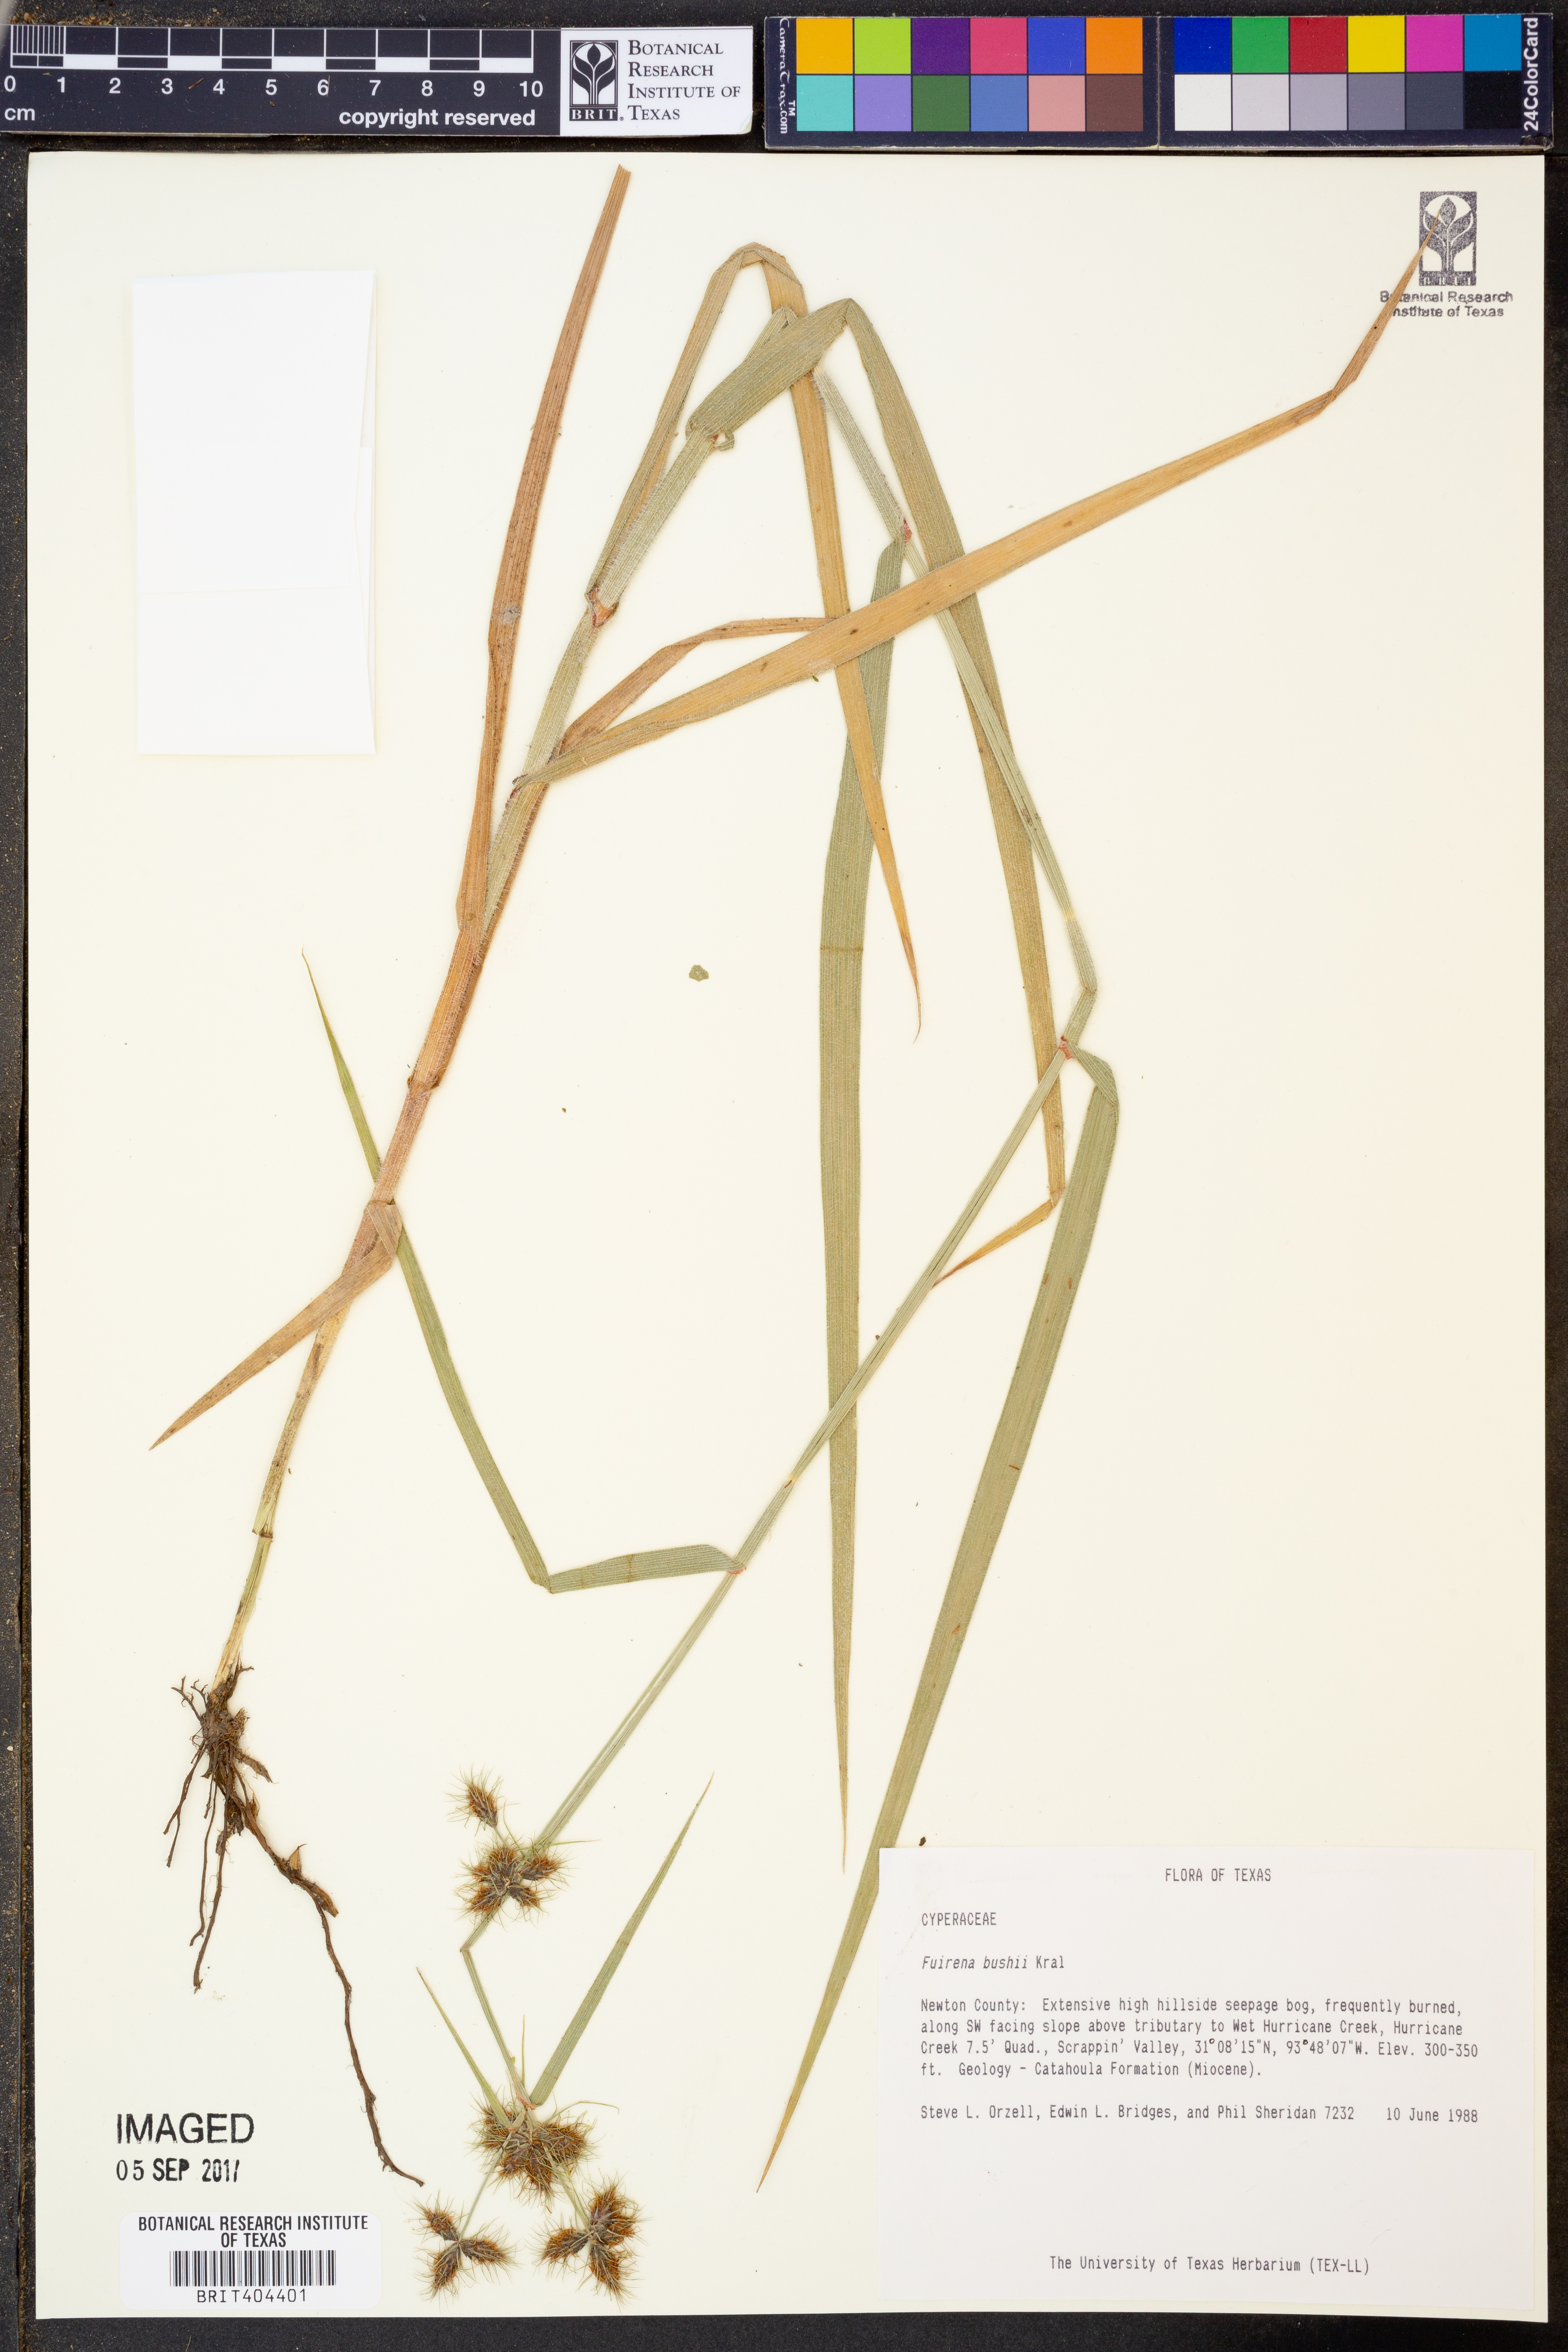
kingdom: Plantae
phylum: Tracheophyta
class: Liliopsida
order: Poales
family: Cyperaceae
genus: Fuirena
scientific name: Fuirena bushii
